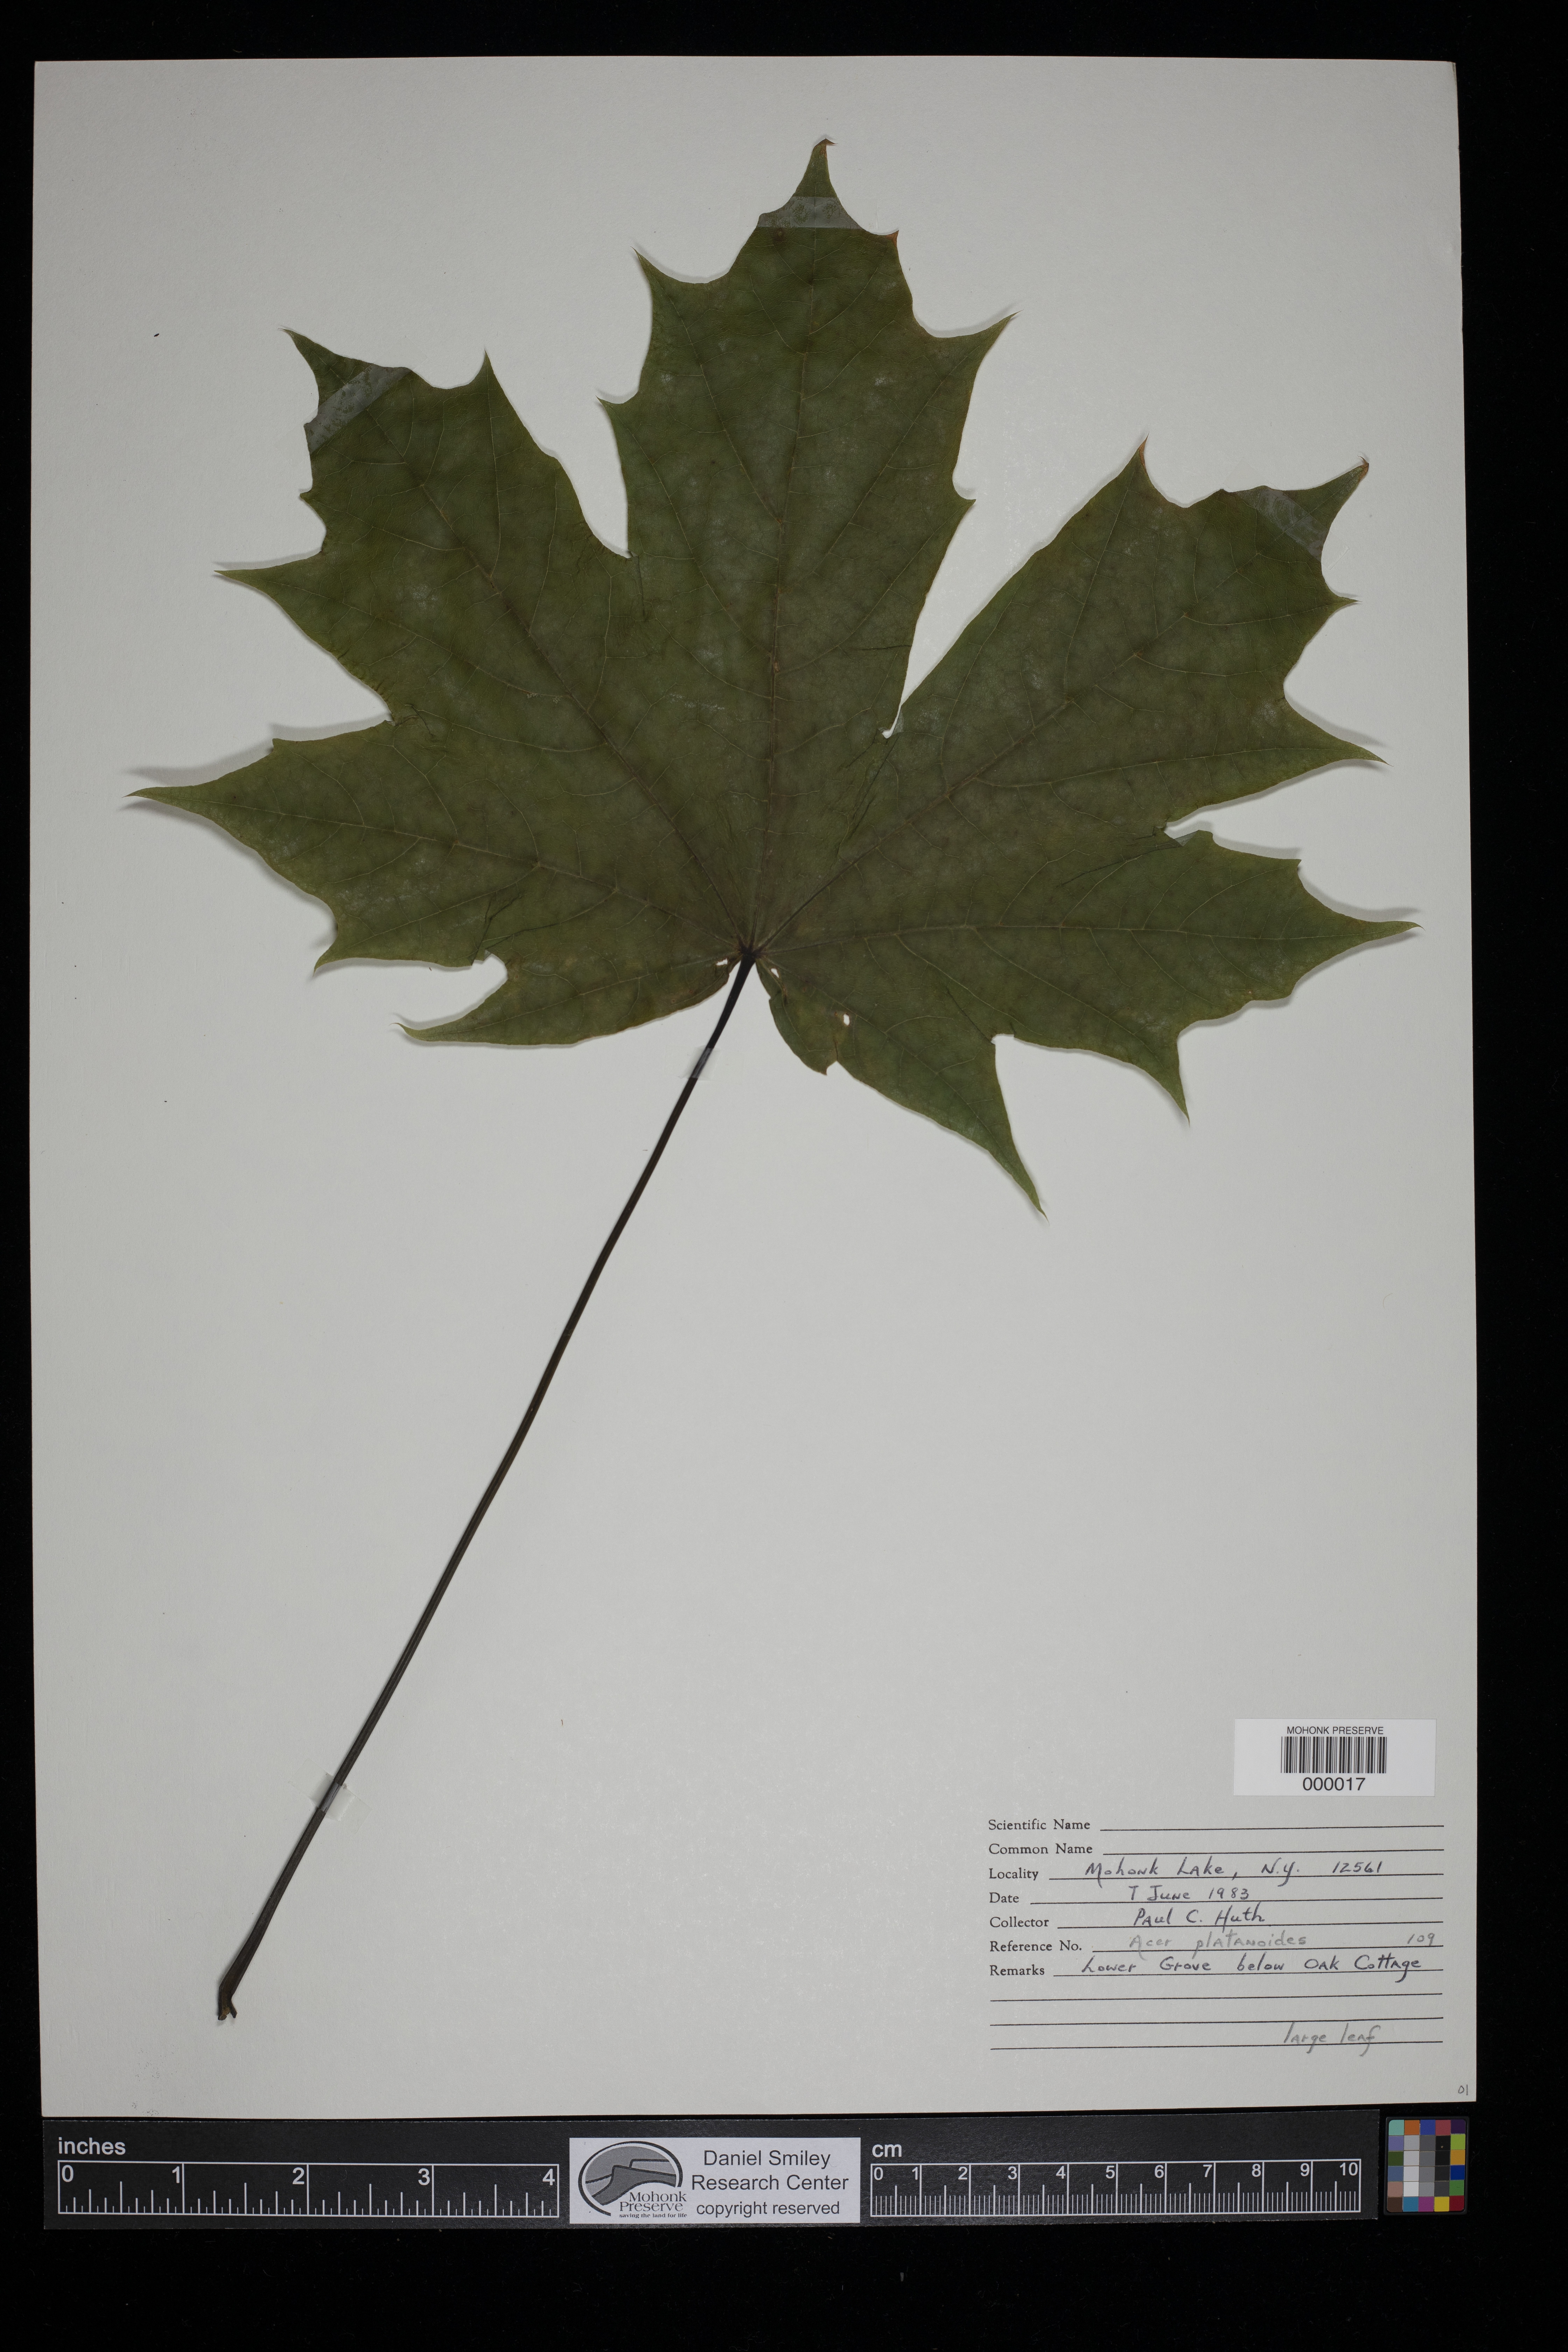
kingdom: Plantae
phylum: Tracheophyta
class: Magnoliopsida
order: Sapindales
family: Sapindaceae
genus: Acer
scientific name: Acer platanoides
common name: Norway maple
